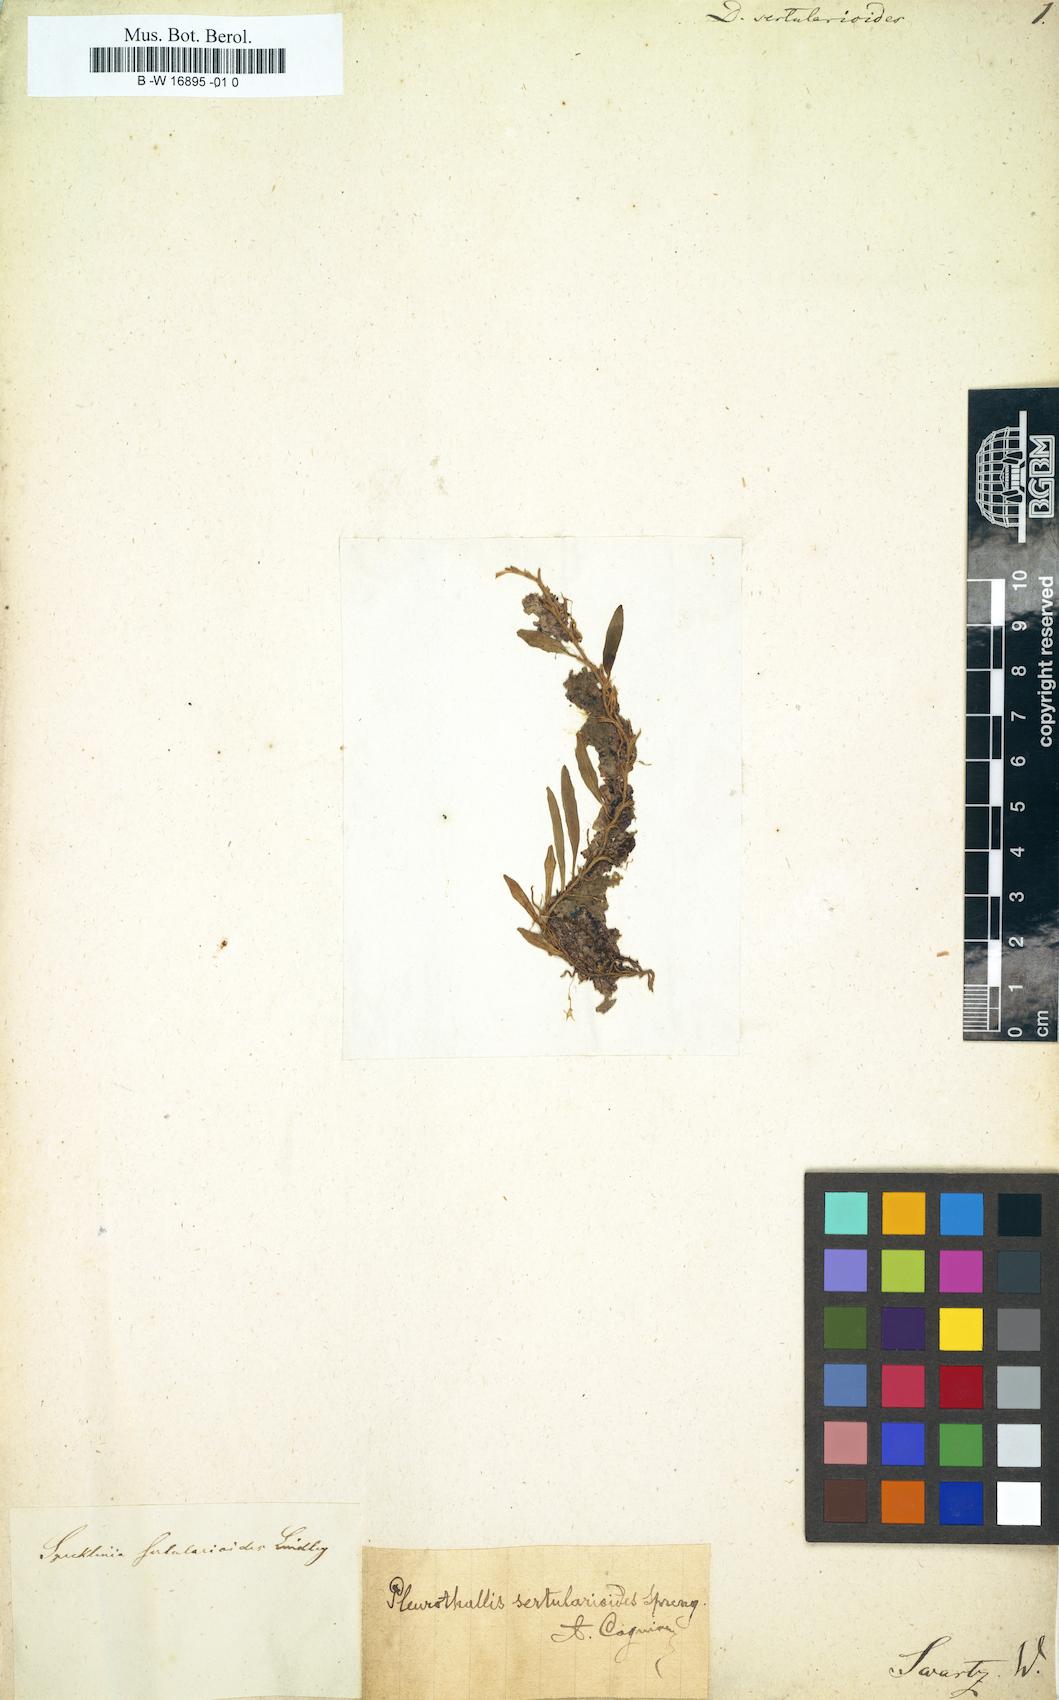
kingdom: Plantae
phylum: Tracheophyta
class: Liliopsida
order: Asparagales
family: Orchidaceae
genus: Anathallis
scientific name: Anathallis sertularioides
